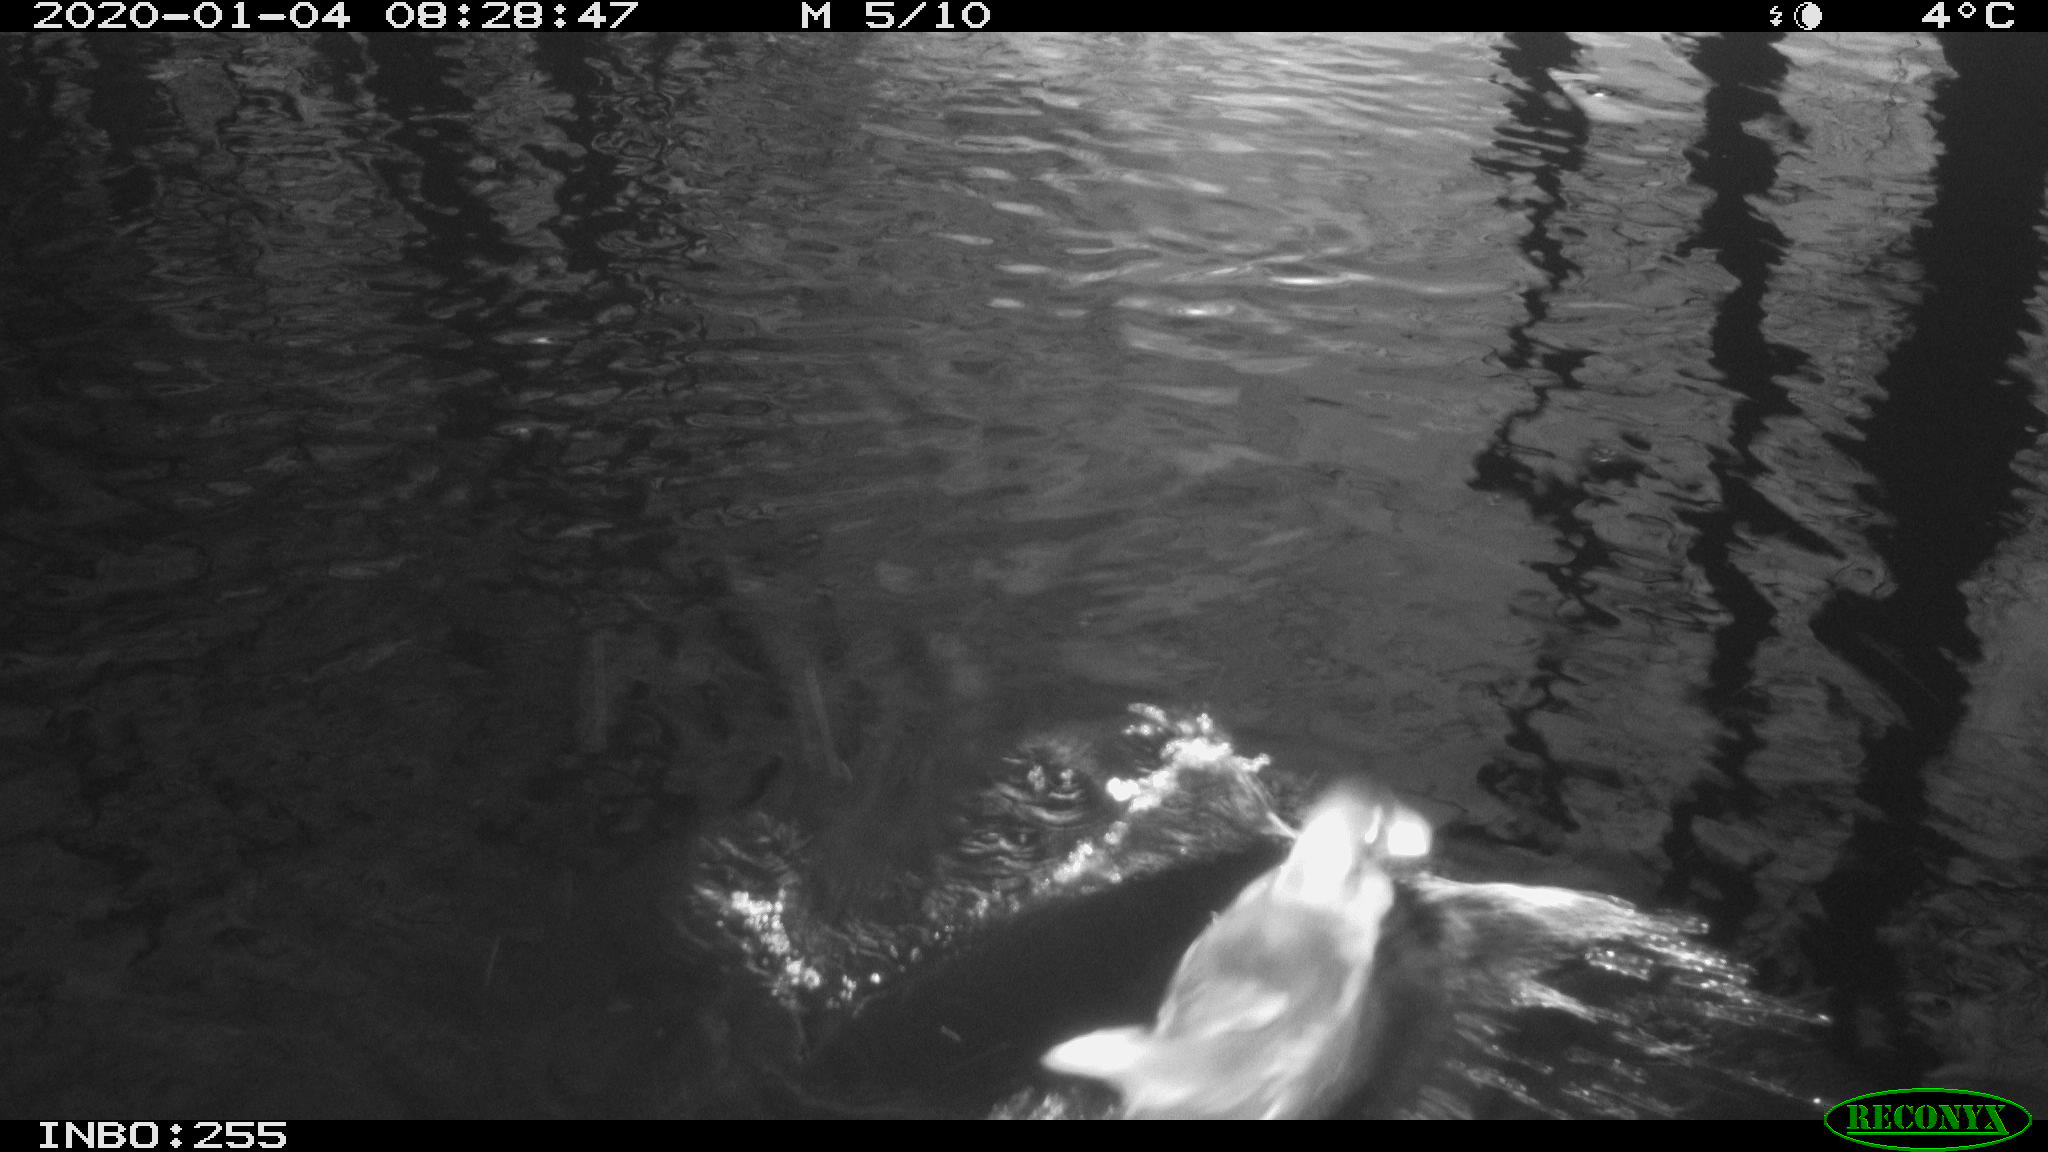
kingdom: Animalia
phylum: Chordata
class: Aves
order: Gruiformes
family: Rallidae
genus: Gallinula
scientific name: Gallinula chloropus
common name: Common moorhen
